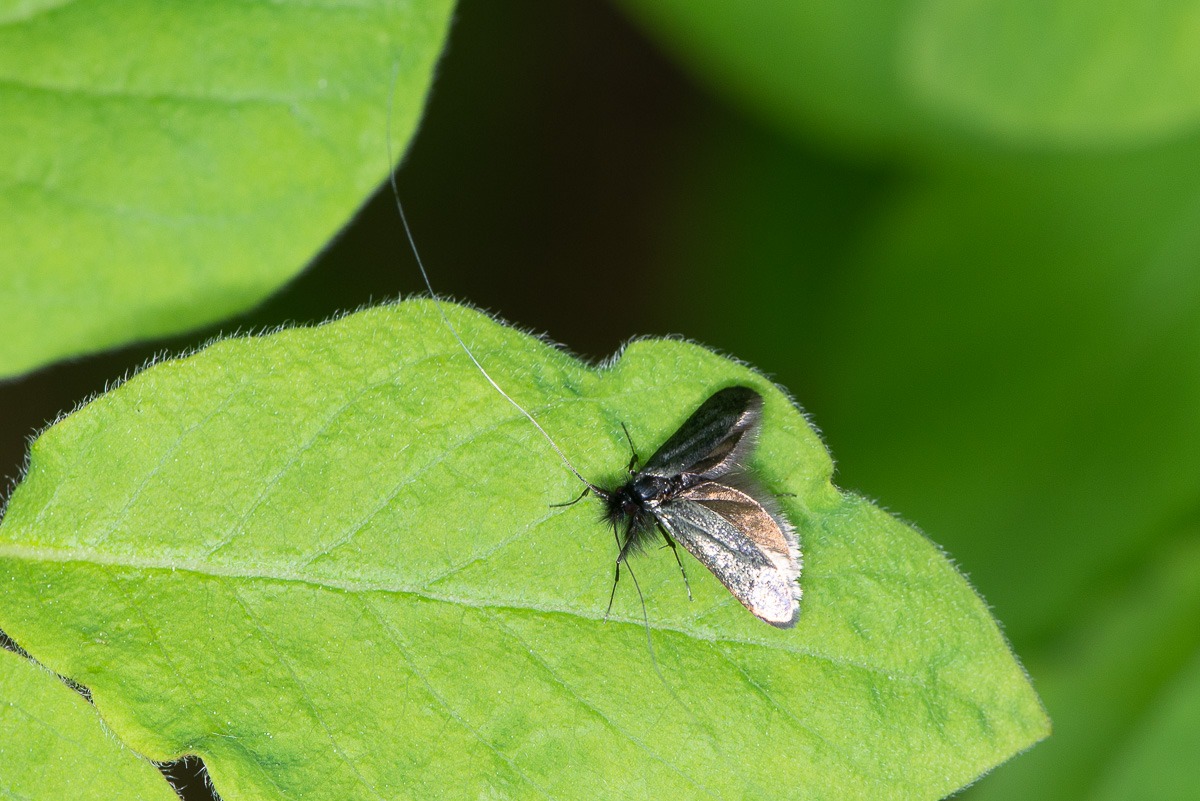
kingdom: Animalia
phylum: Arthropoda
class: Insecta
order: Lepidoptera
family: Adelidae
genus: Adela
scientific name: Adela viridella
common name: Egelanghornsmøl
